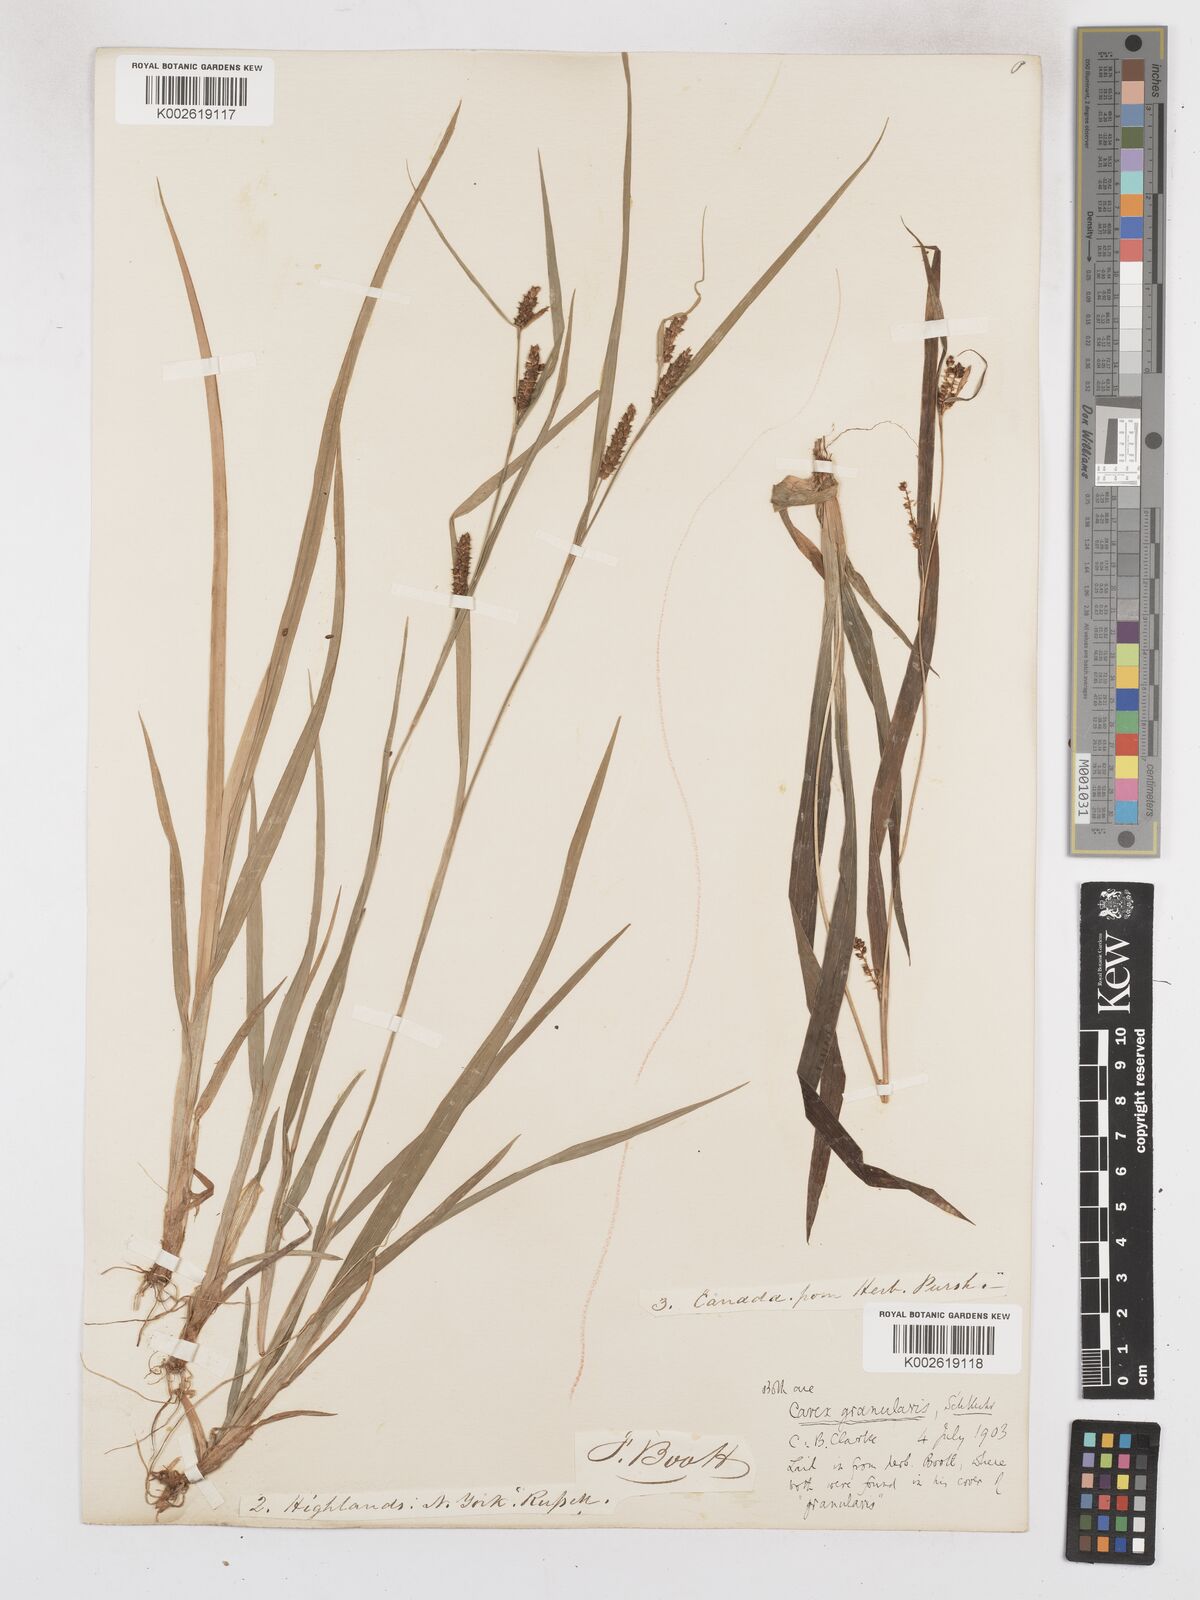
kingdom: Plantae
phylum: Tracheophyta
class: Liliopsida
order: Poales
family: Cyperaceae
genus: Carex
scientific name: Carex granularis
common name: Granular sedge
